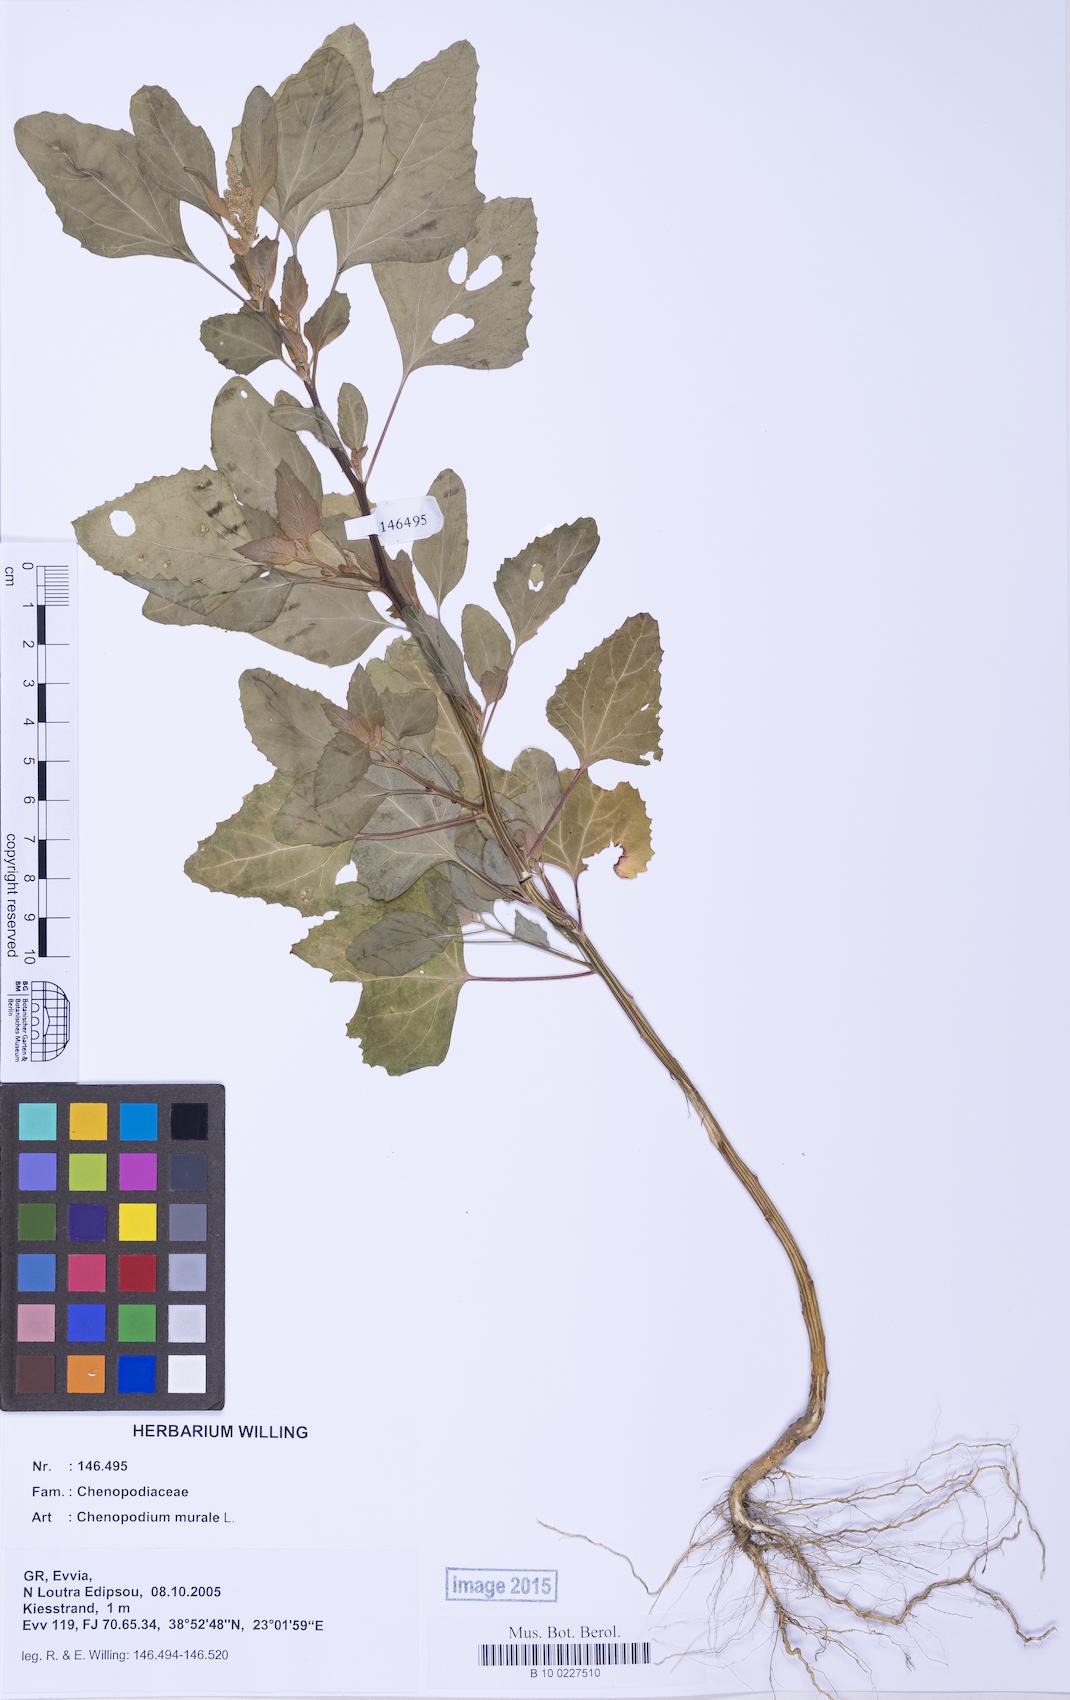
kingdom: Plantae
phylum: Tracheophyta
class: Magnoliopsida
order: Caryophyllales
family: Amaranthaceae
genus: Chenopodium
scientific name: Chenopodium giganteum
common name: Magentaspreen
